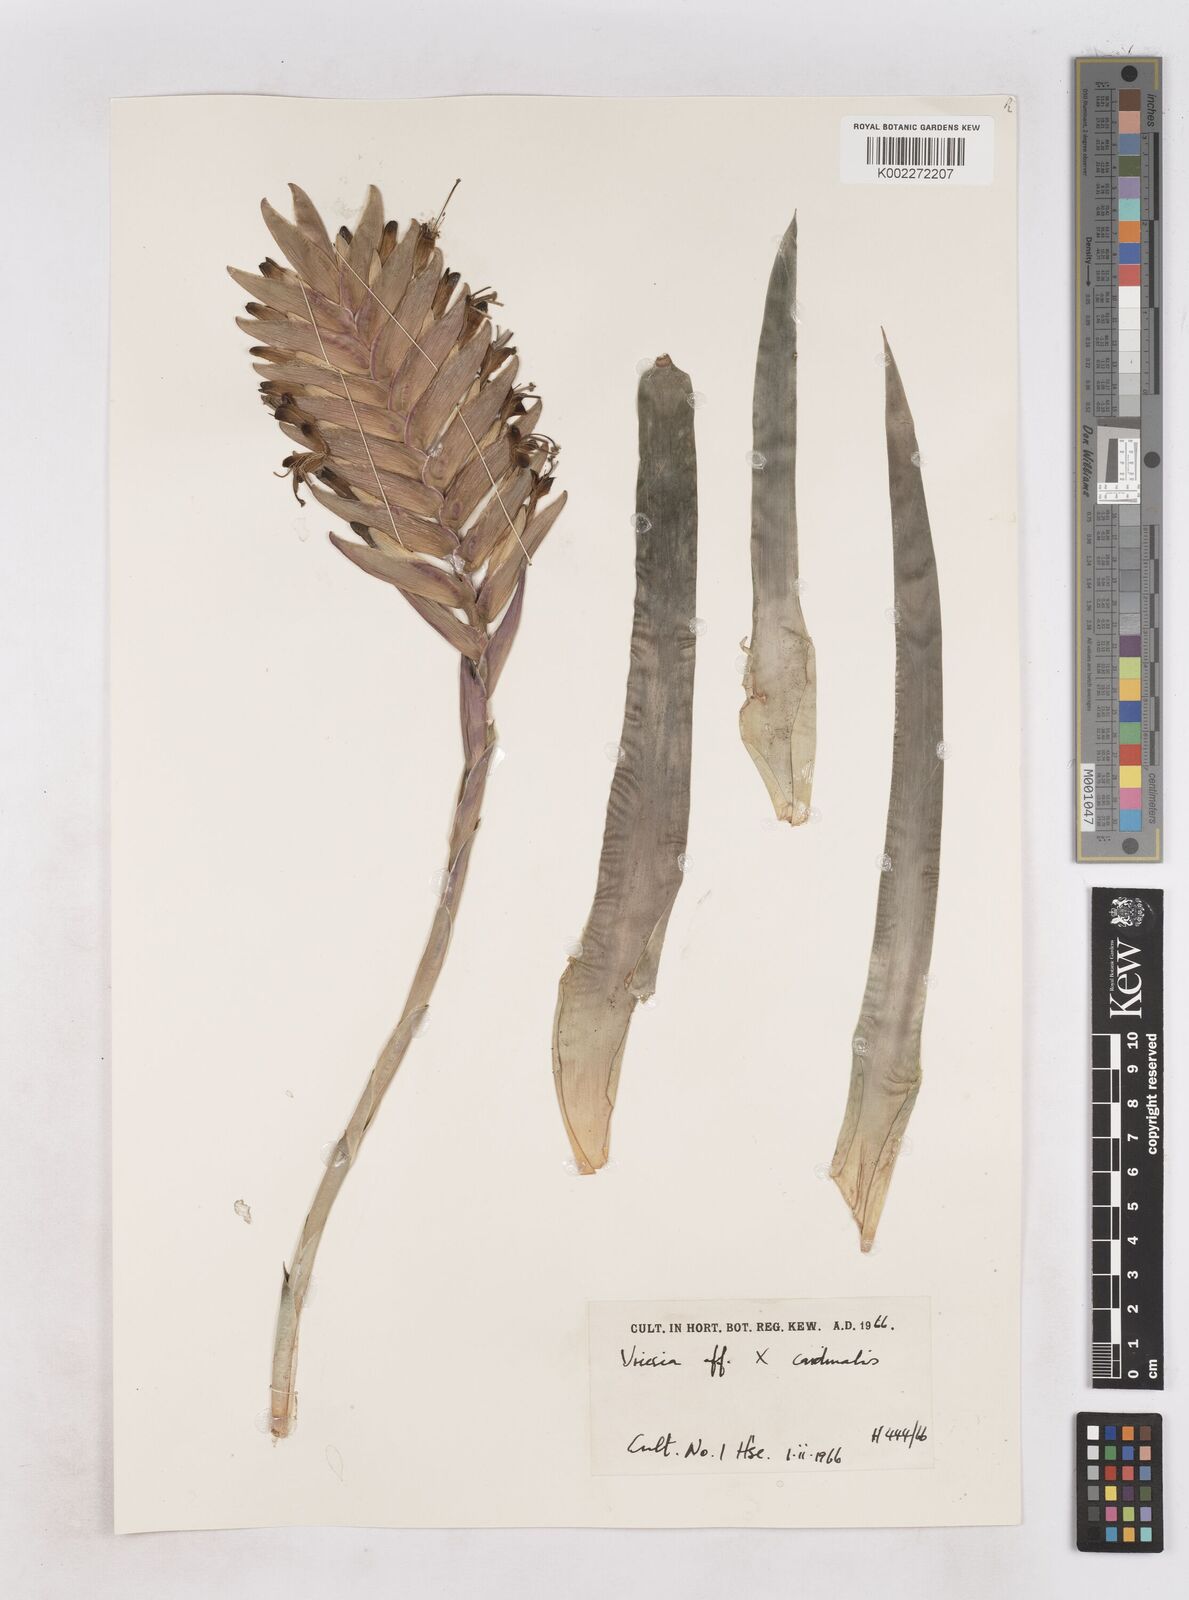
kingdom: Plantae
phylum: Tracheophyta
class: Liliopsida
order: Poales
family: Bromeliaceae
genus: Vriesea
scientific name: Vriesea cardinalis
